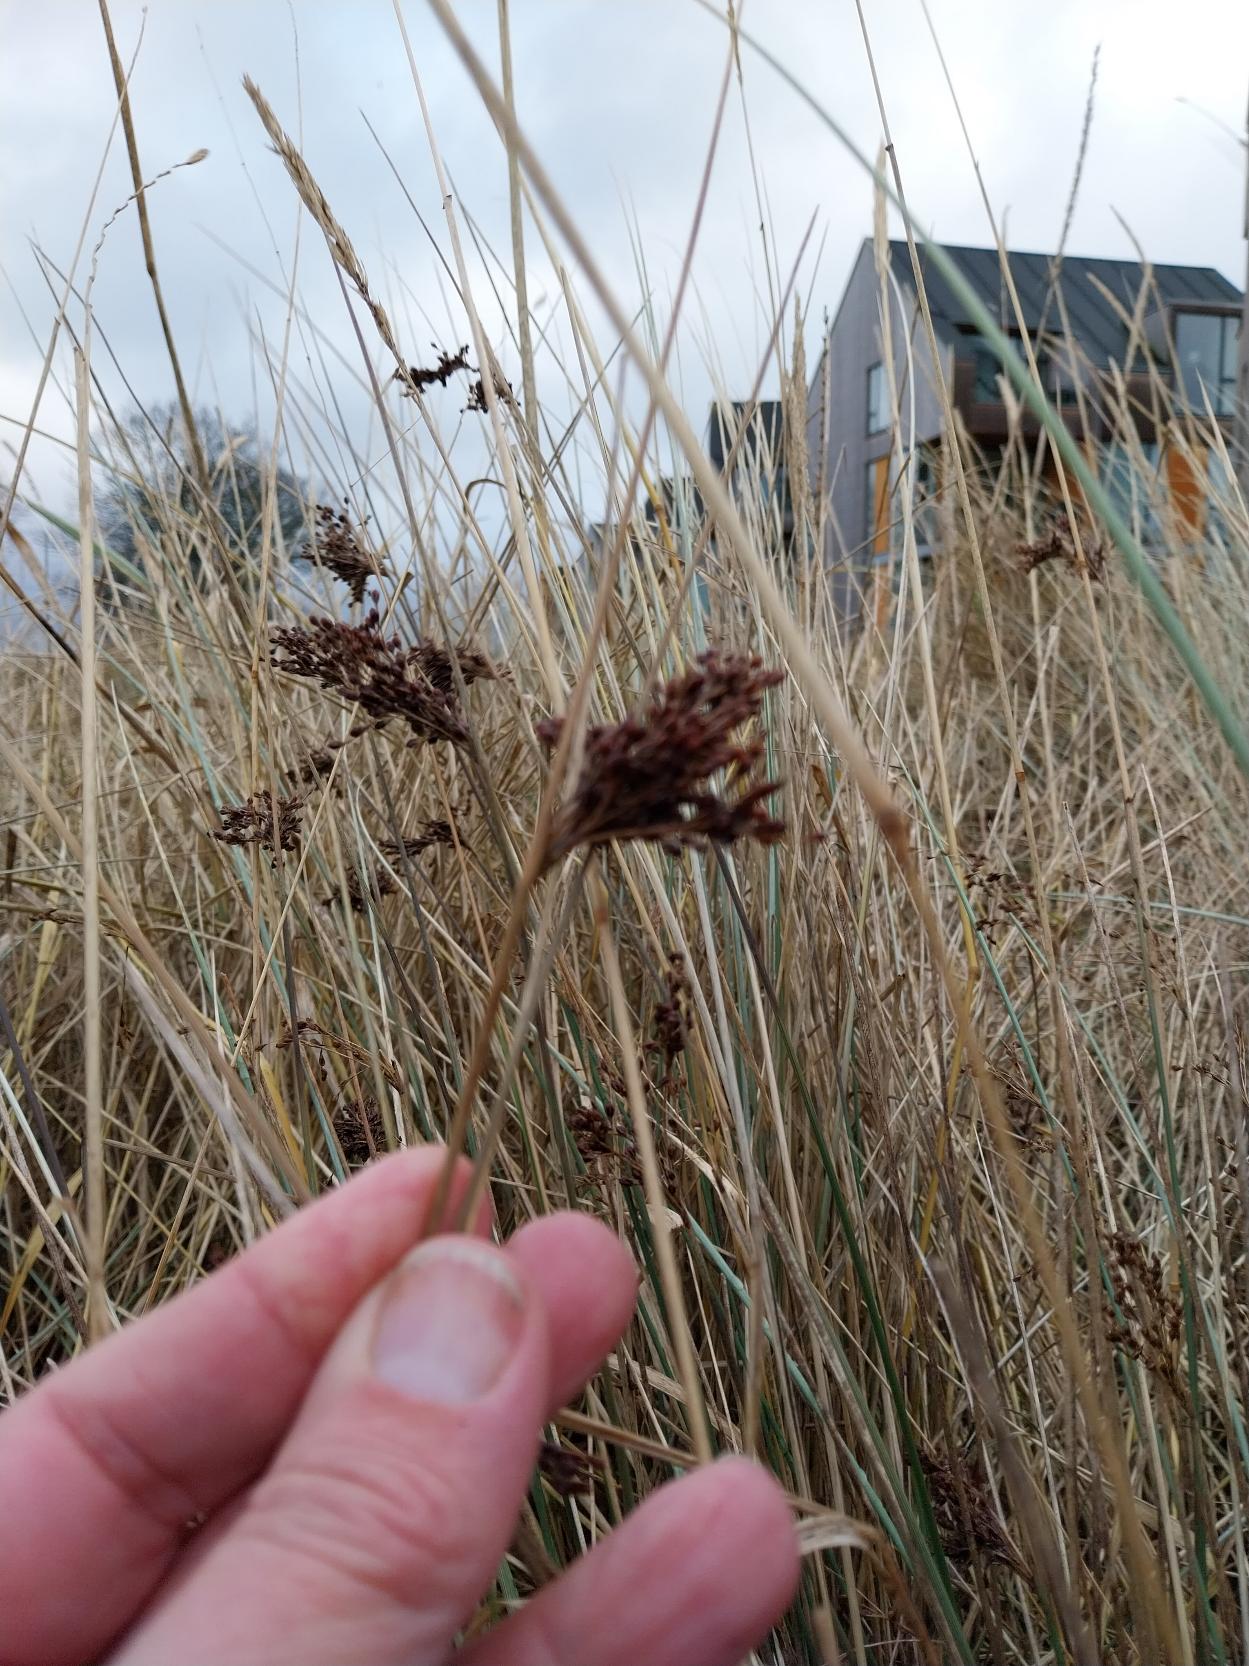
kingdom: Plantae
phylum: Tracheophyta
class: Liliopsida
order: Poales
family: Juncaceae
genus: Juncus
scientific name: Juncus inflexus
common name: Blågrå siv
